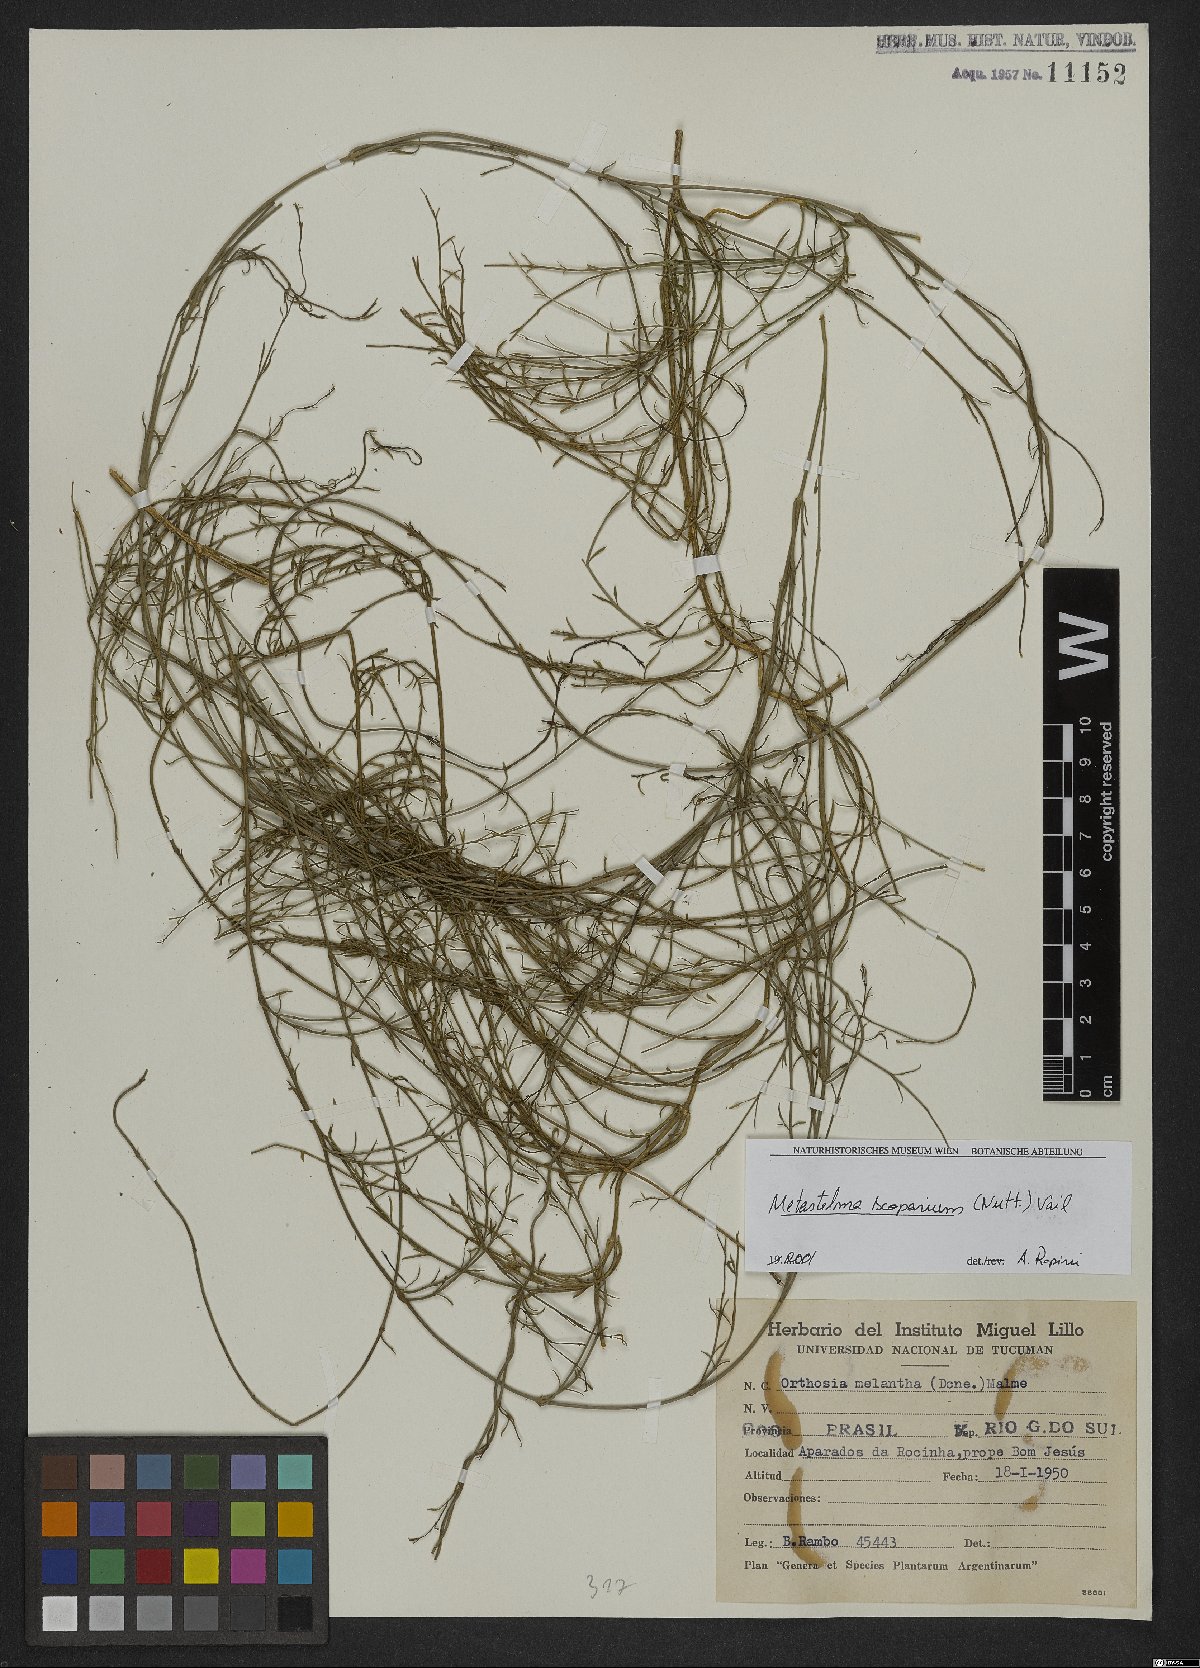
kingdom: Plantae
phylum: Tracheophyta
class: Magnoliopsida
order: Gentianales
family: Apocynaceae
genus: Orthosia
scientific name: Orthosia scoparia
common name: Leafless swallow-wort
